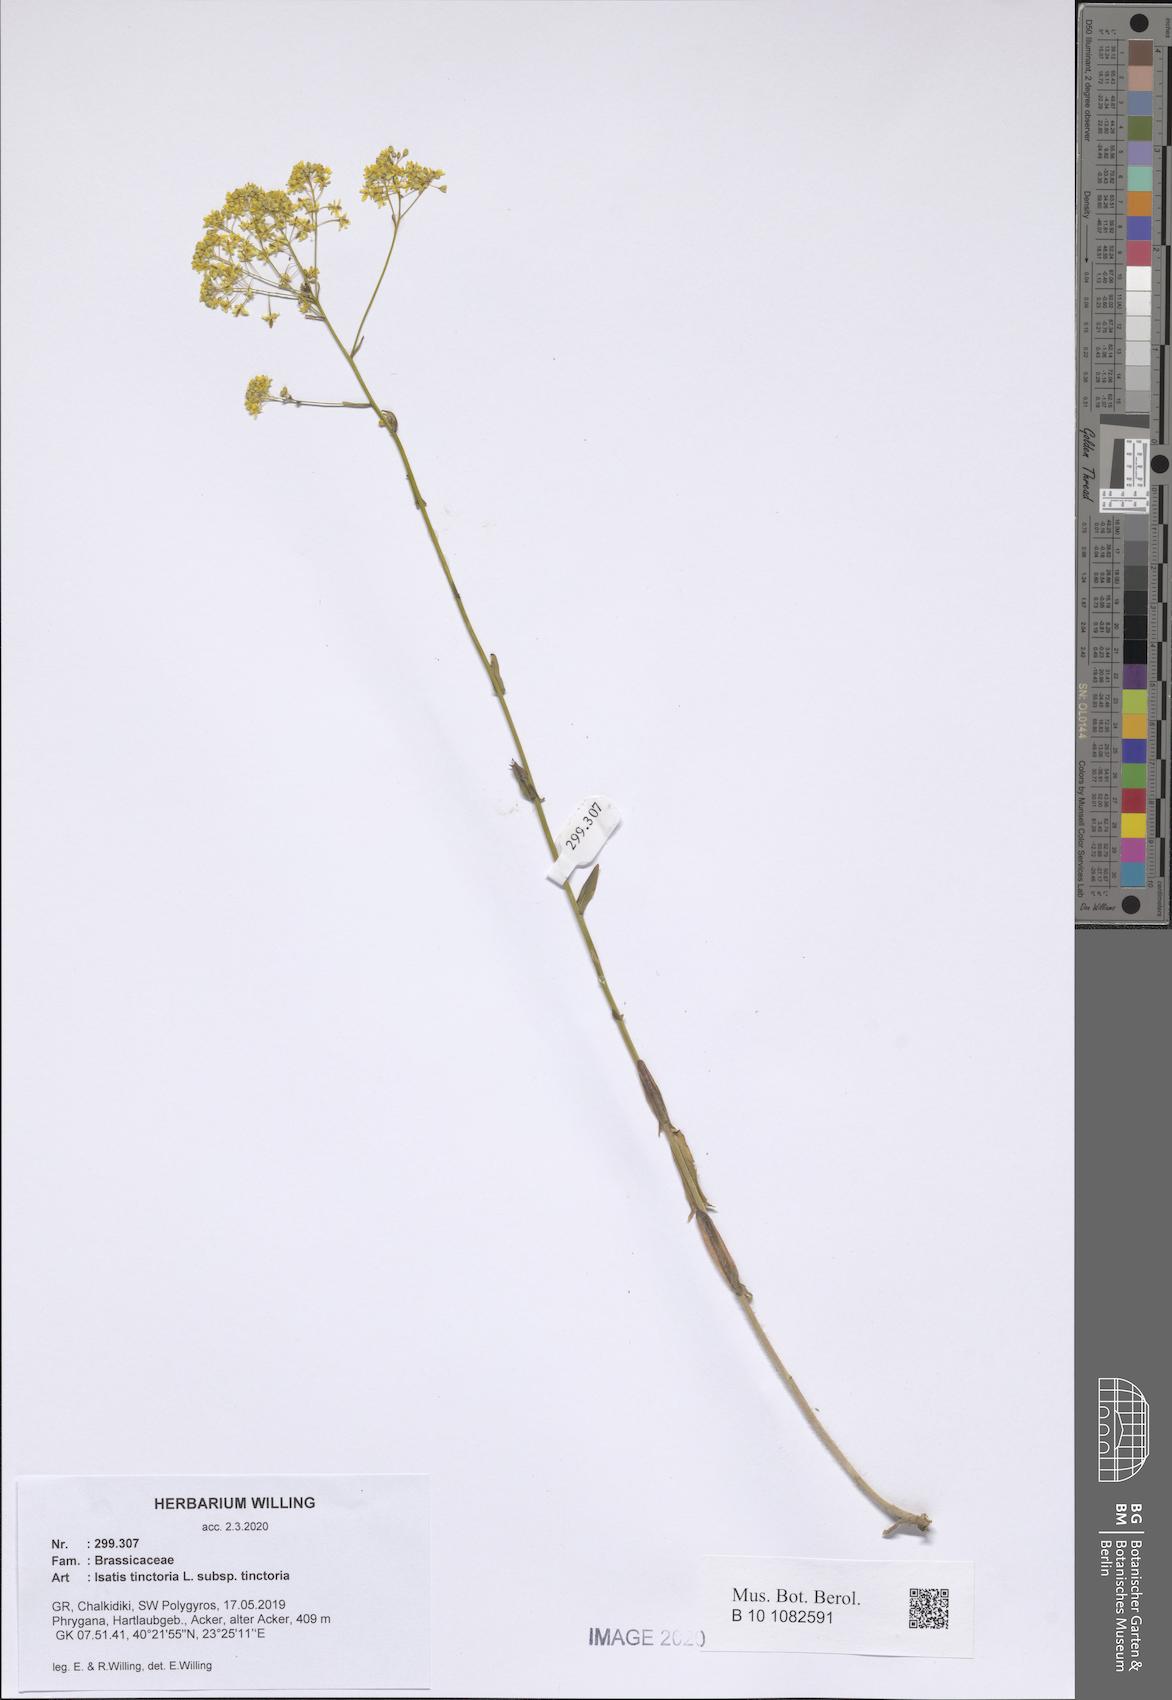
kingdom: Plantae
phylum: Tracheophyta
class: Magnoliopsida
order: Brassicales
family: Brassicaceae
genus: Isatis
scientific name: Isatis tinctoria
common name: Woad
